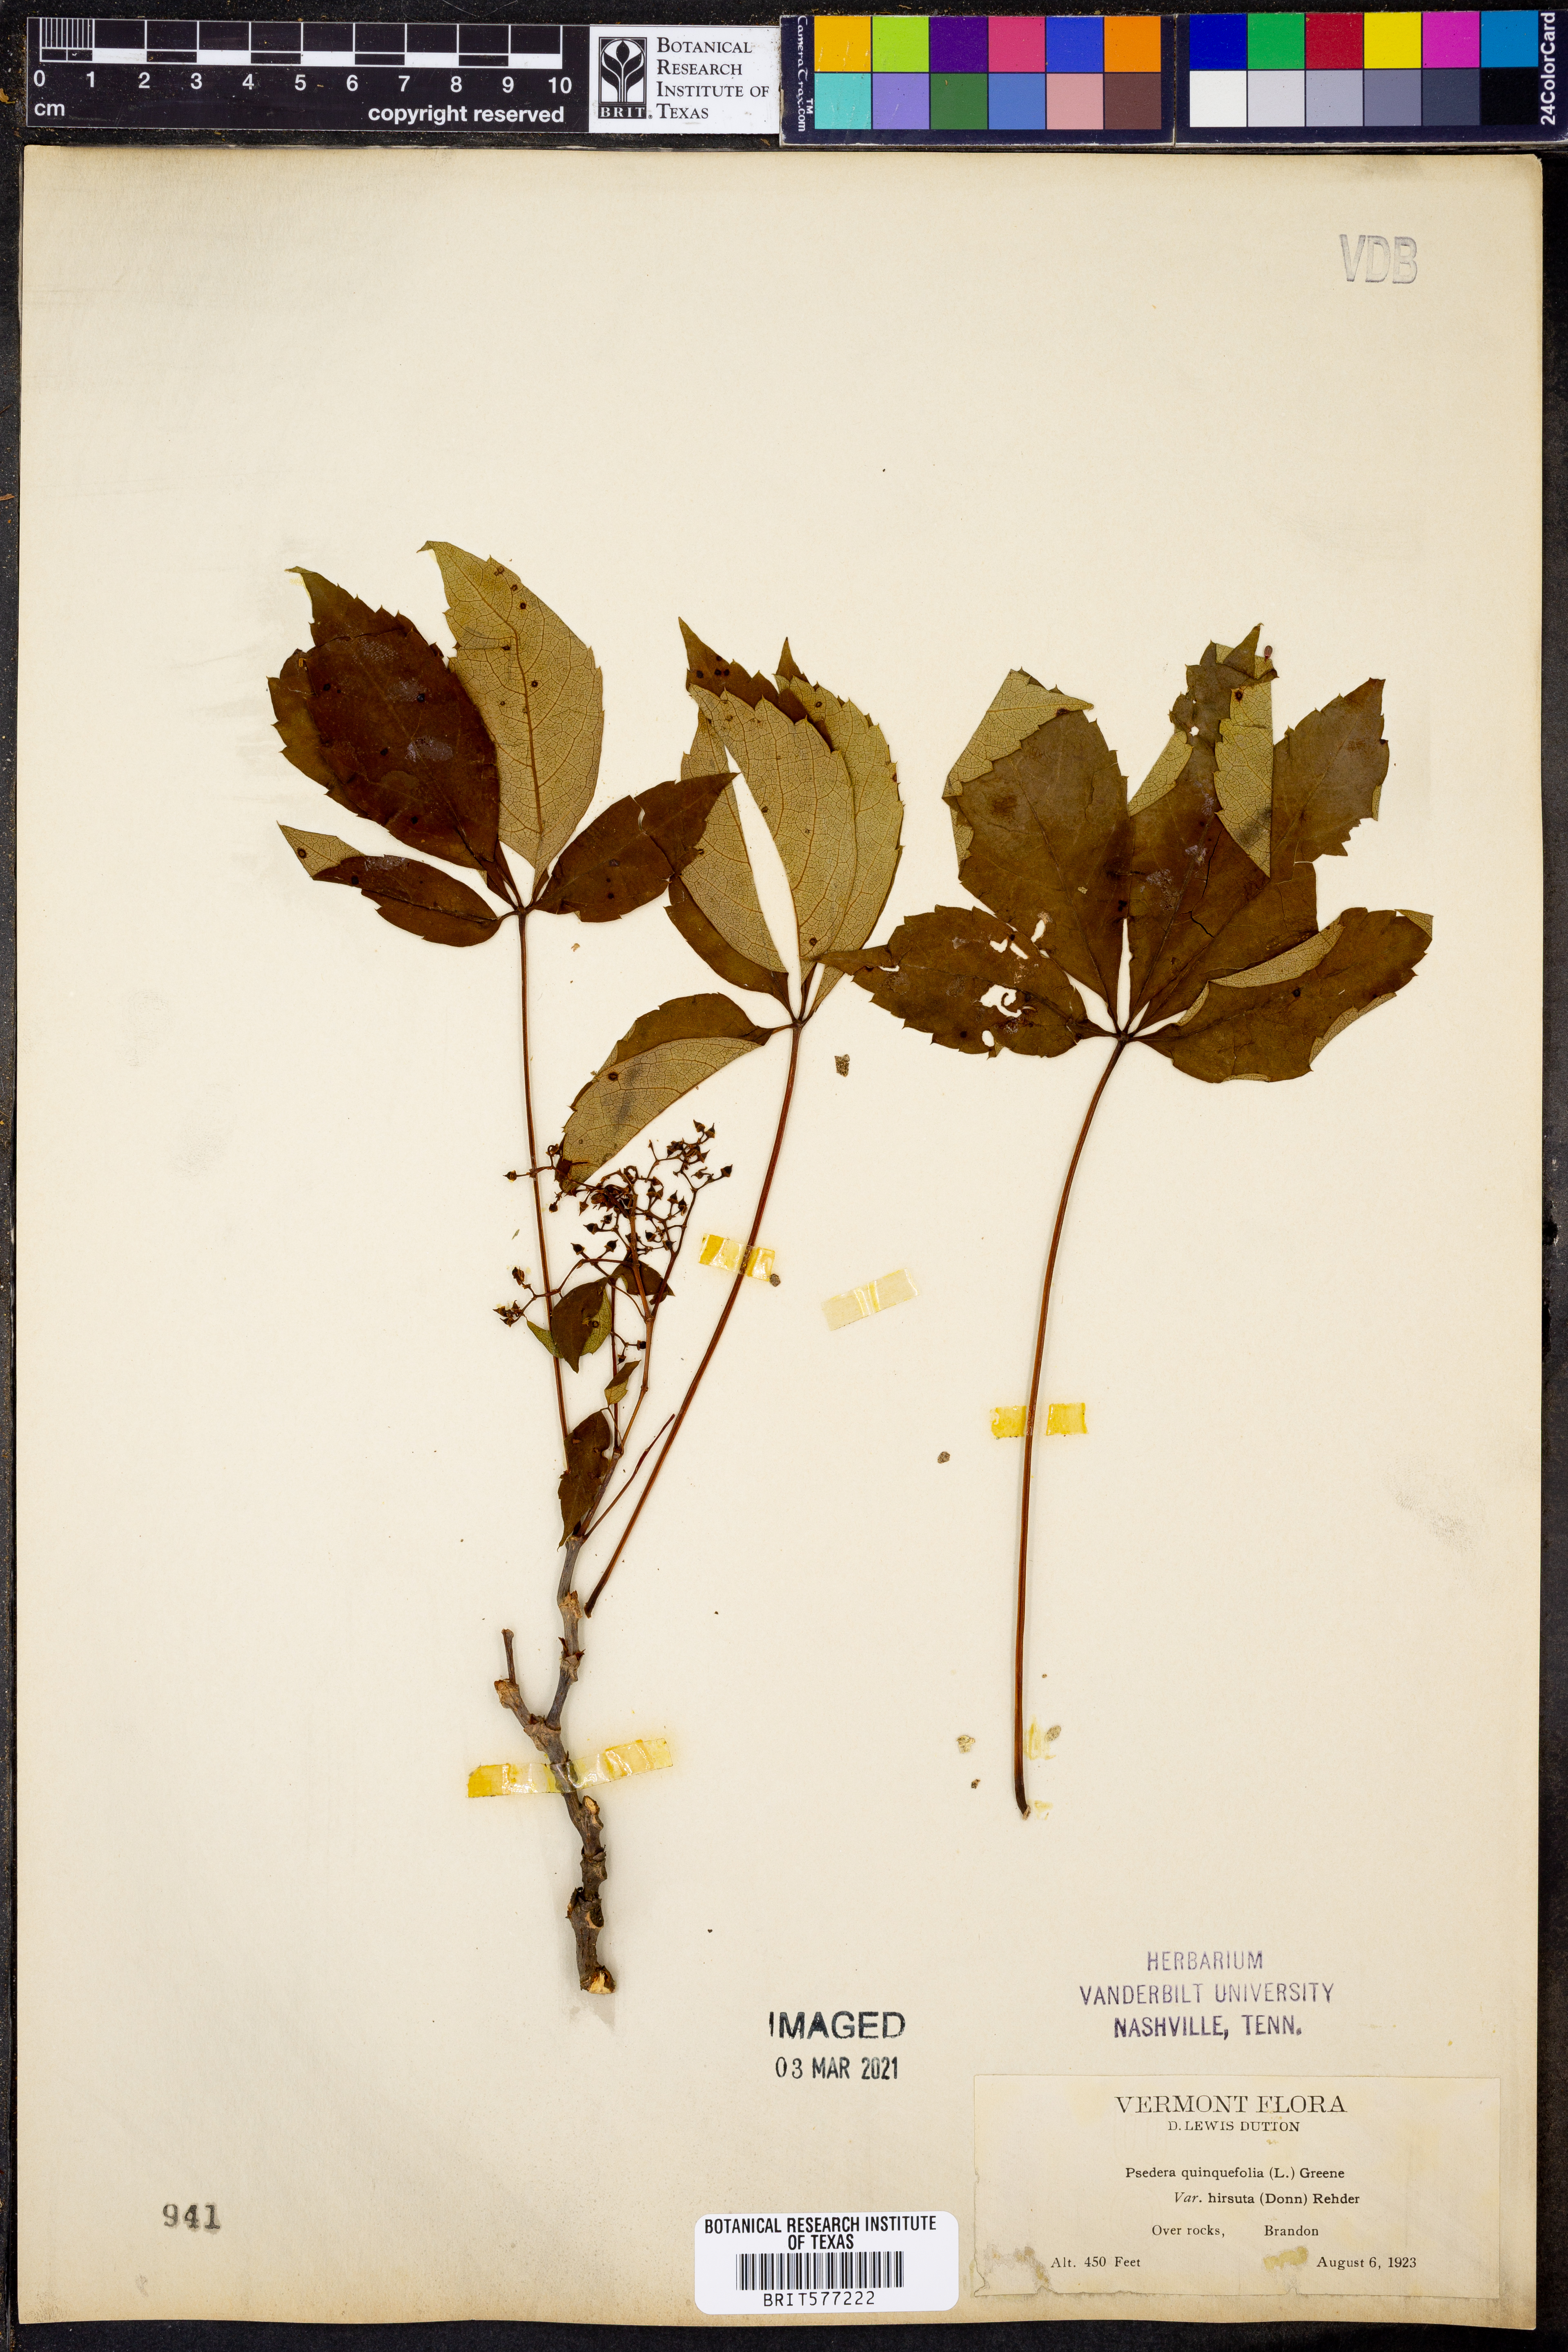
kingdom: Plantae
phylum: Tracheophyta
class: Magnoliopsida
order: Vitales
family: Vitaceae
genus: Parthenocissus
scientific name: Parthenocissus quinquefolia
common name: Virginia-creeper
